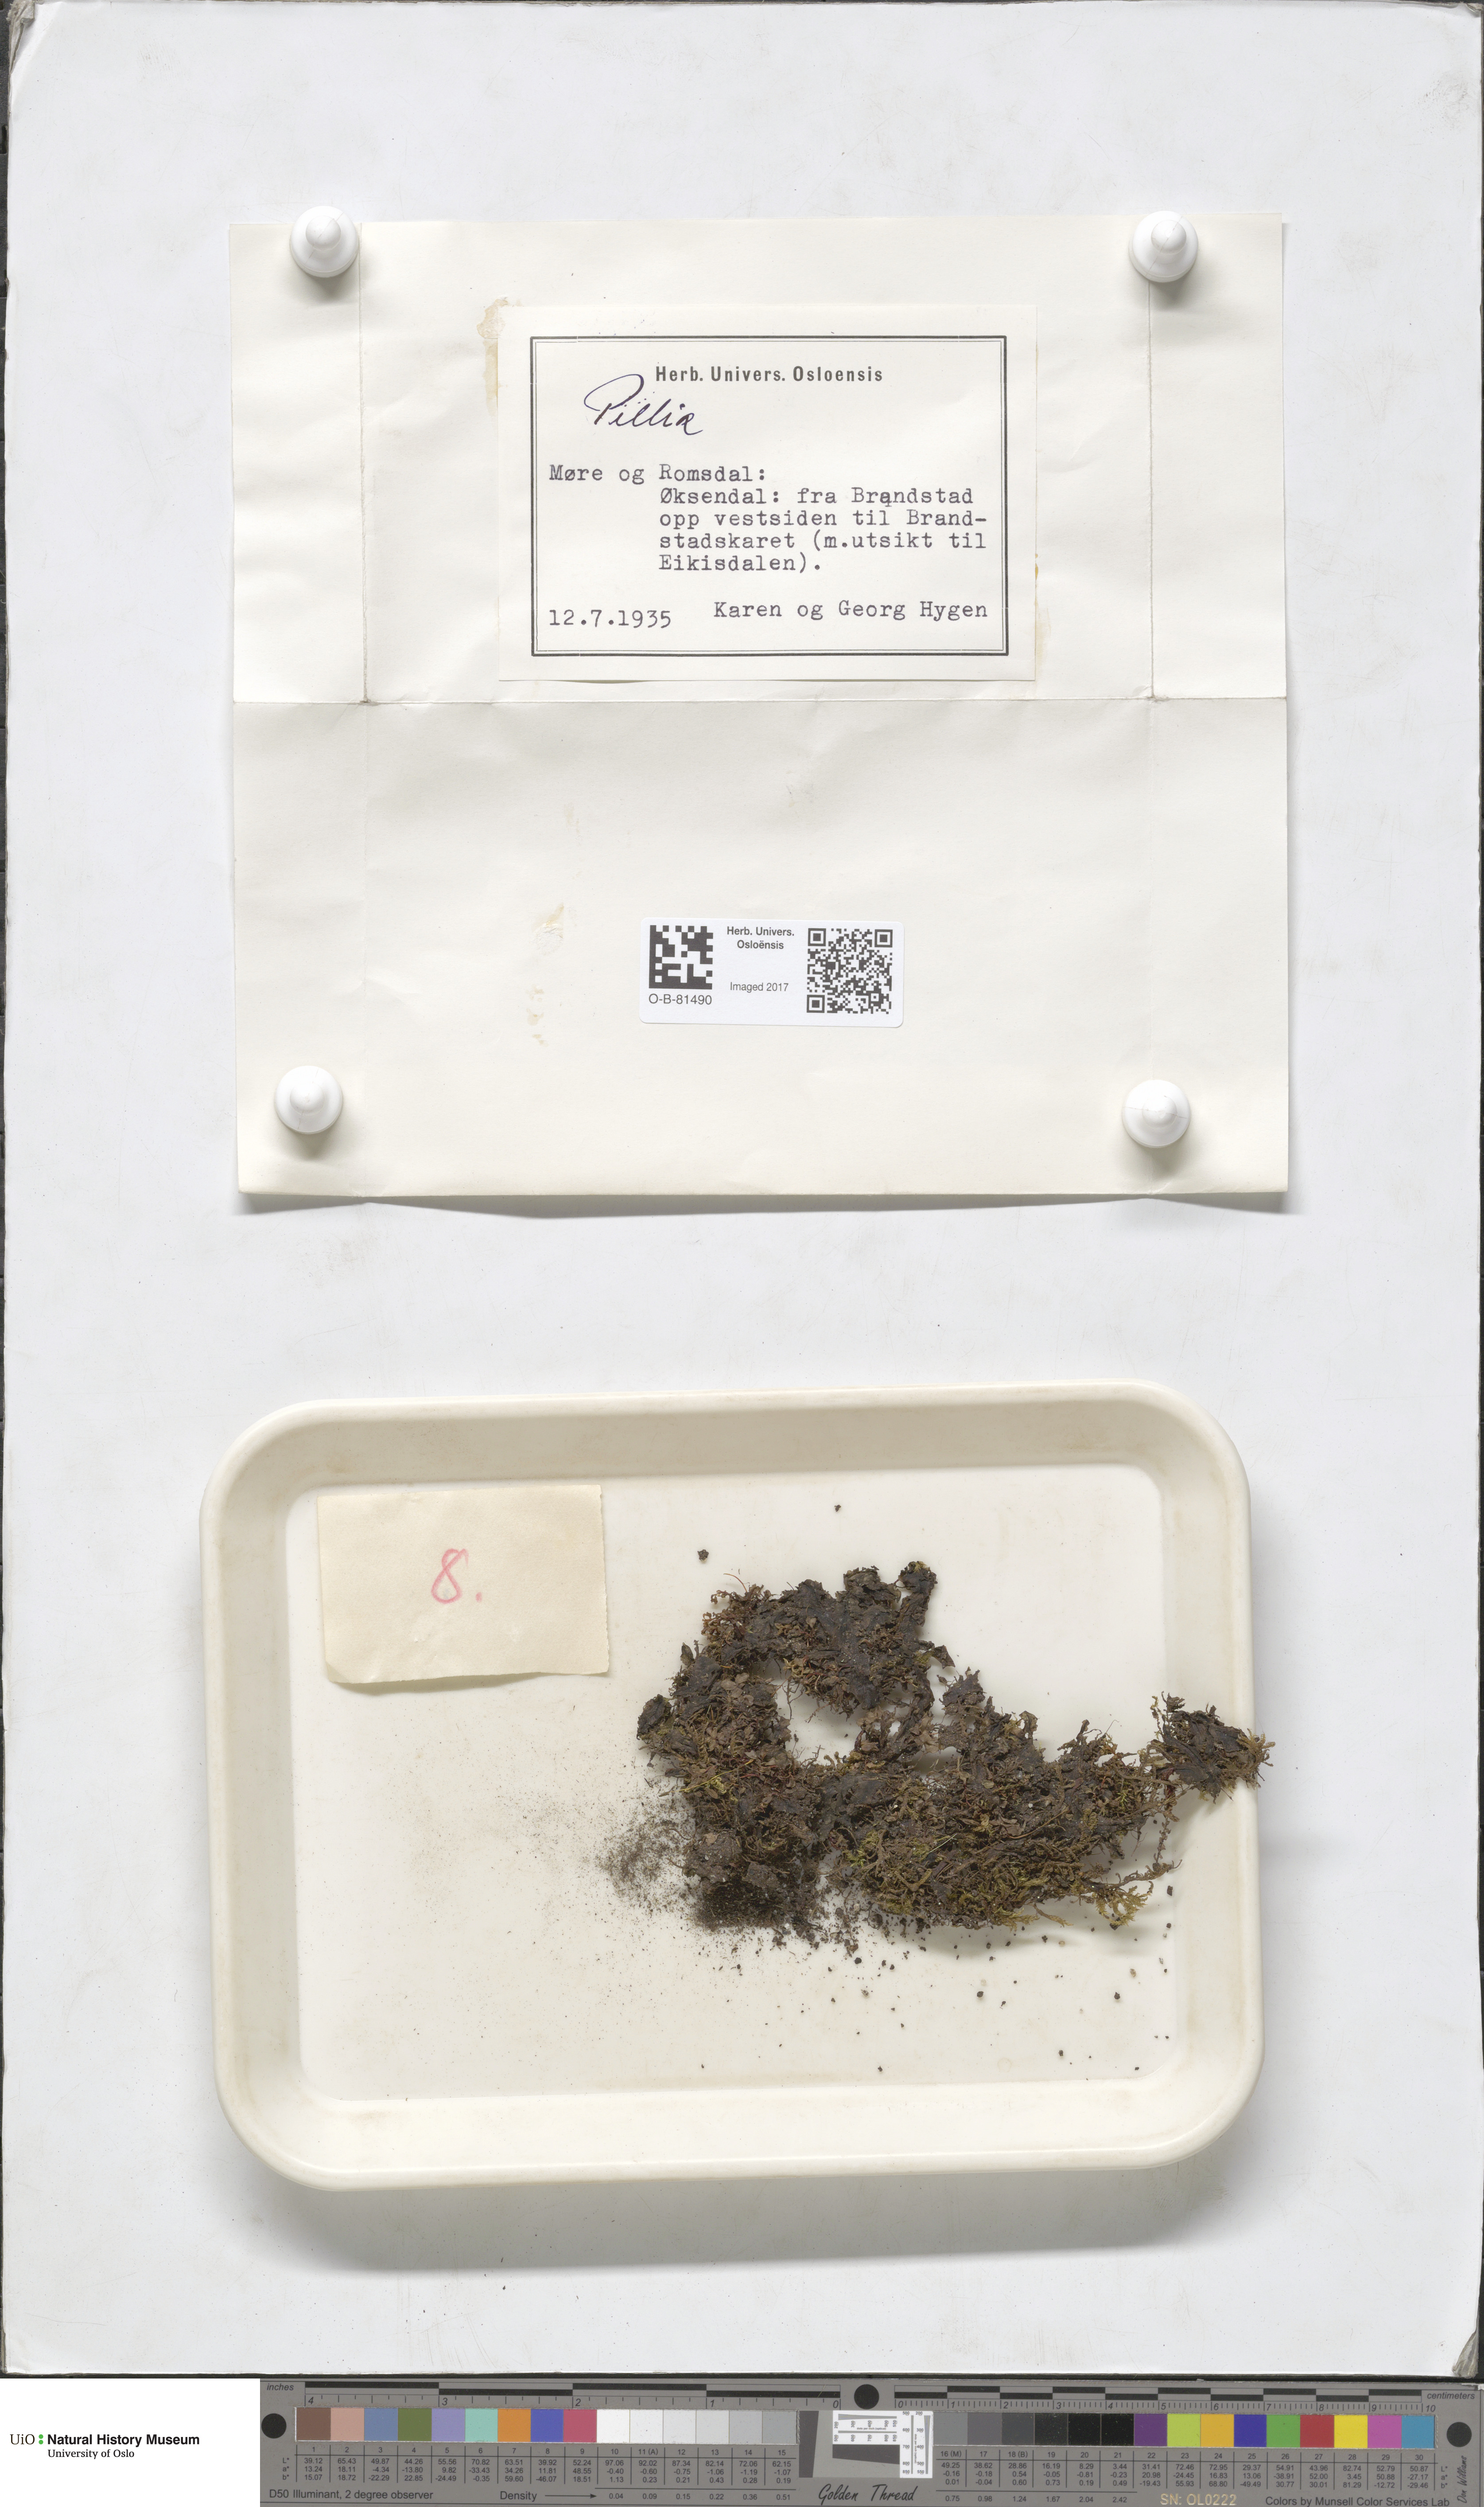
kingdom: Plantae
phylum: Marchantiophyta
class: Jungermanniopsida
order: Pelliales
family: Pelliaceae
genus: Pellia
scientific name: Pellia
